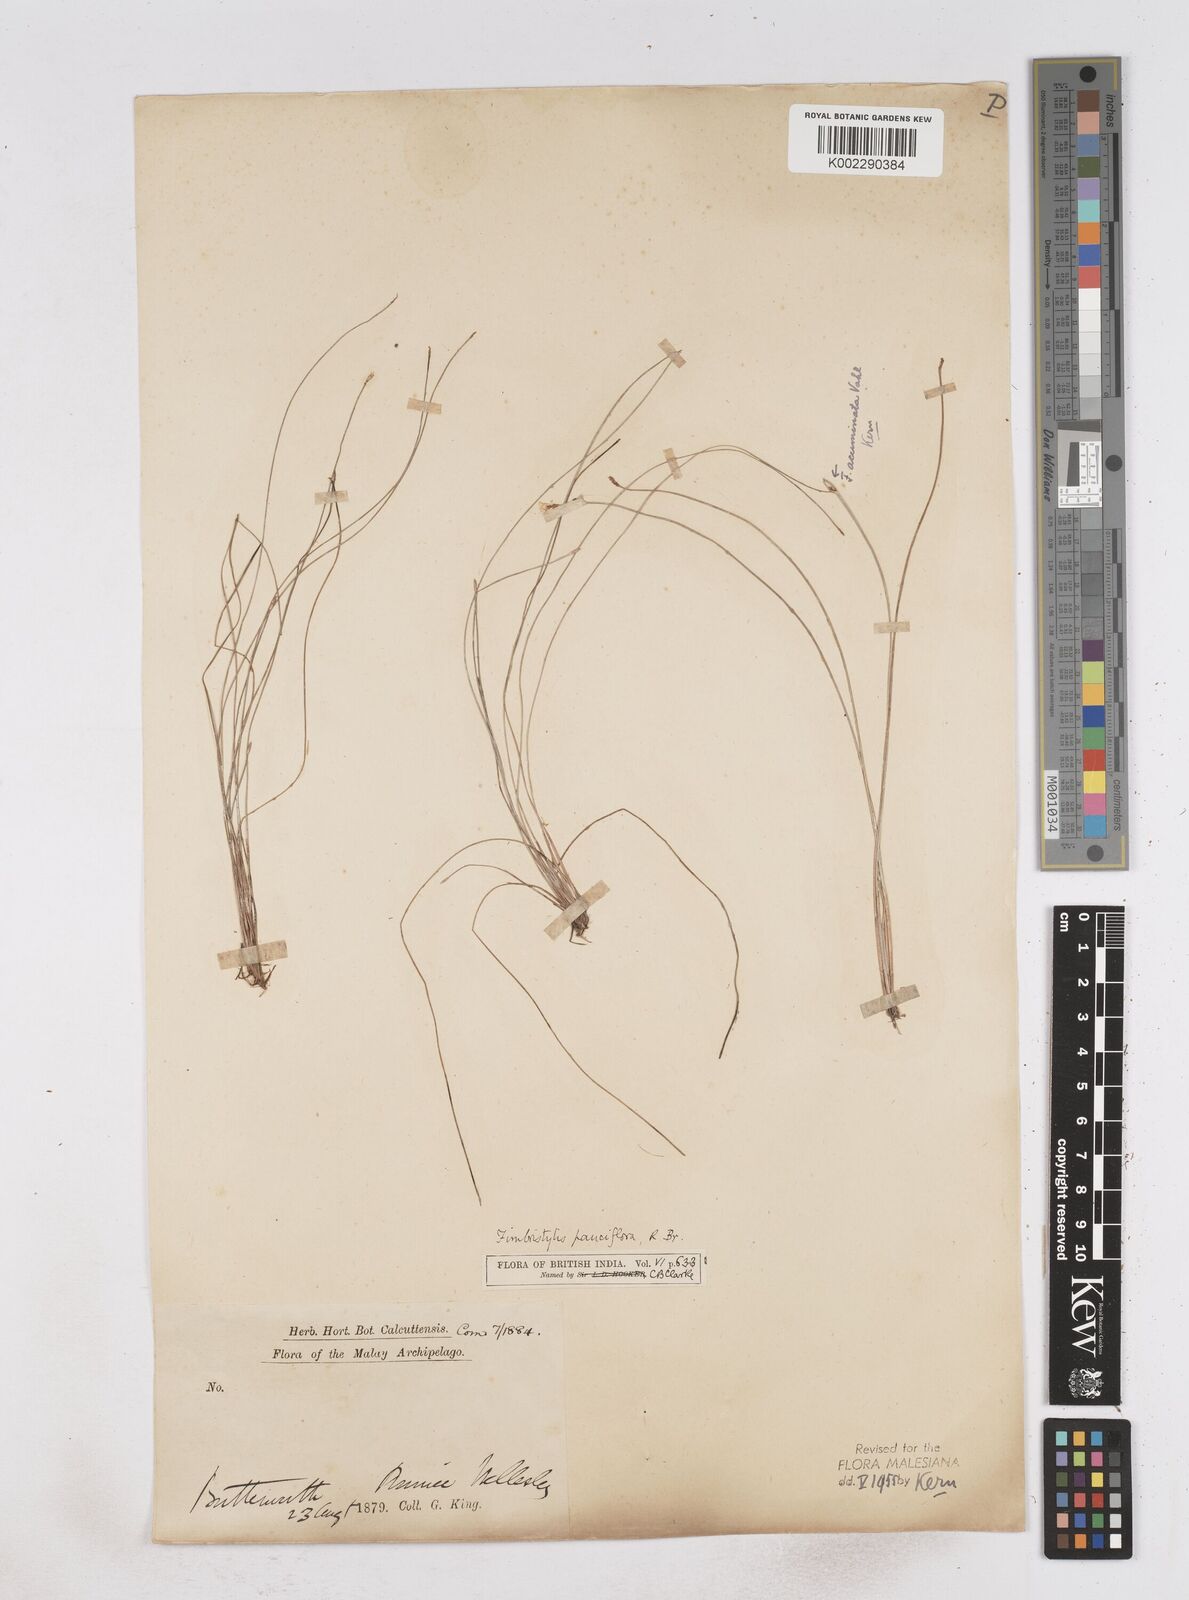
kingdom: Plantae
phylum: Tracheophyta
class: Liliopsida
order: Poales
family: Cyperaceae
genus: Fimbristylis
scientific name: Fimbristylis pauciflora
